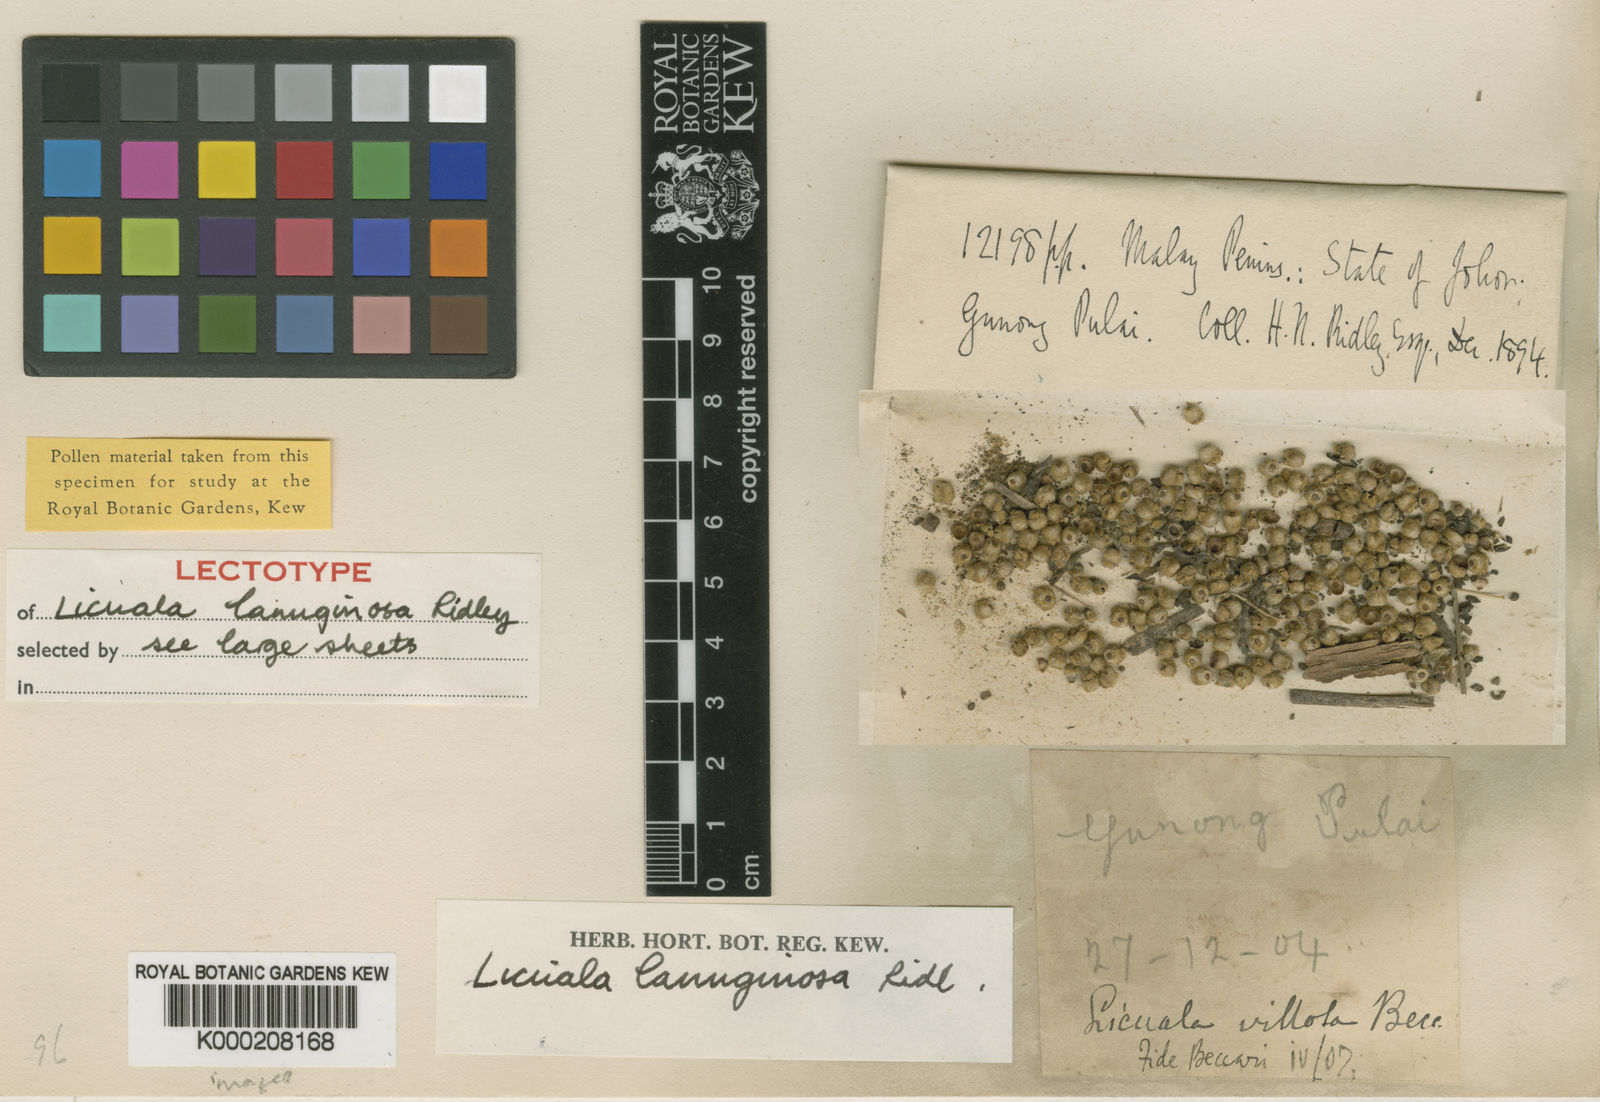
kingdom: Plantae
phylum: Tracheophyta
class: Liliopsida
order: Arecales
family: Arecaceae
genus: Licuala
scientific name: Licuala
